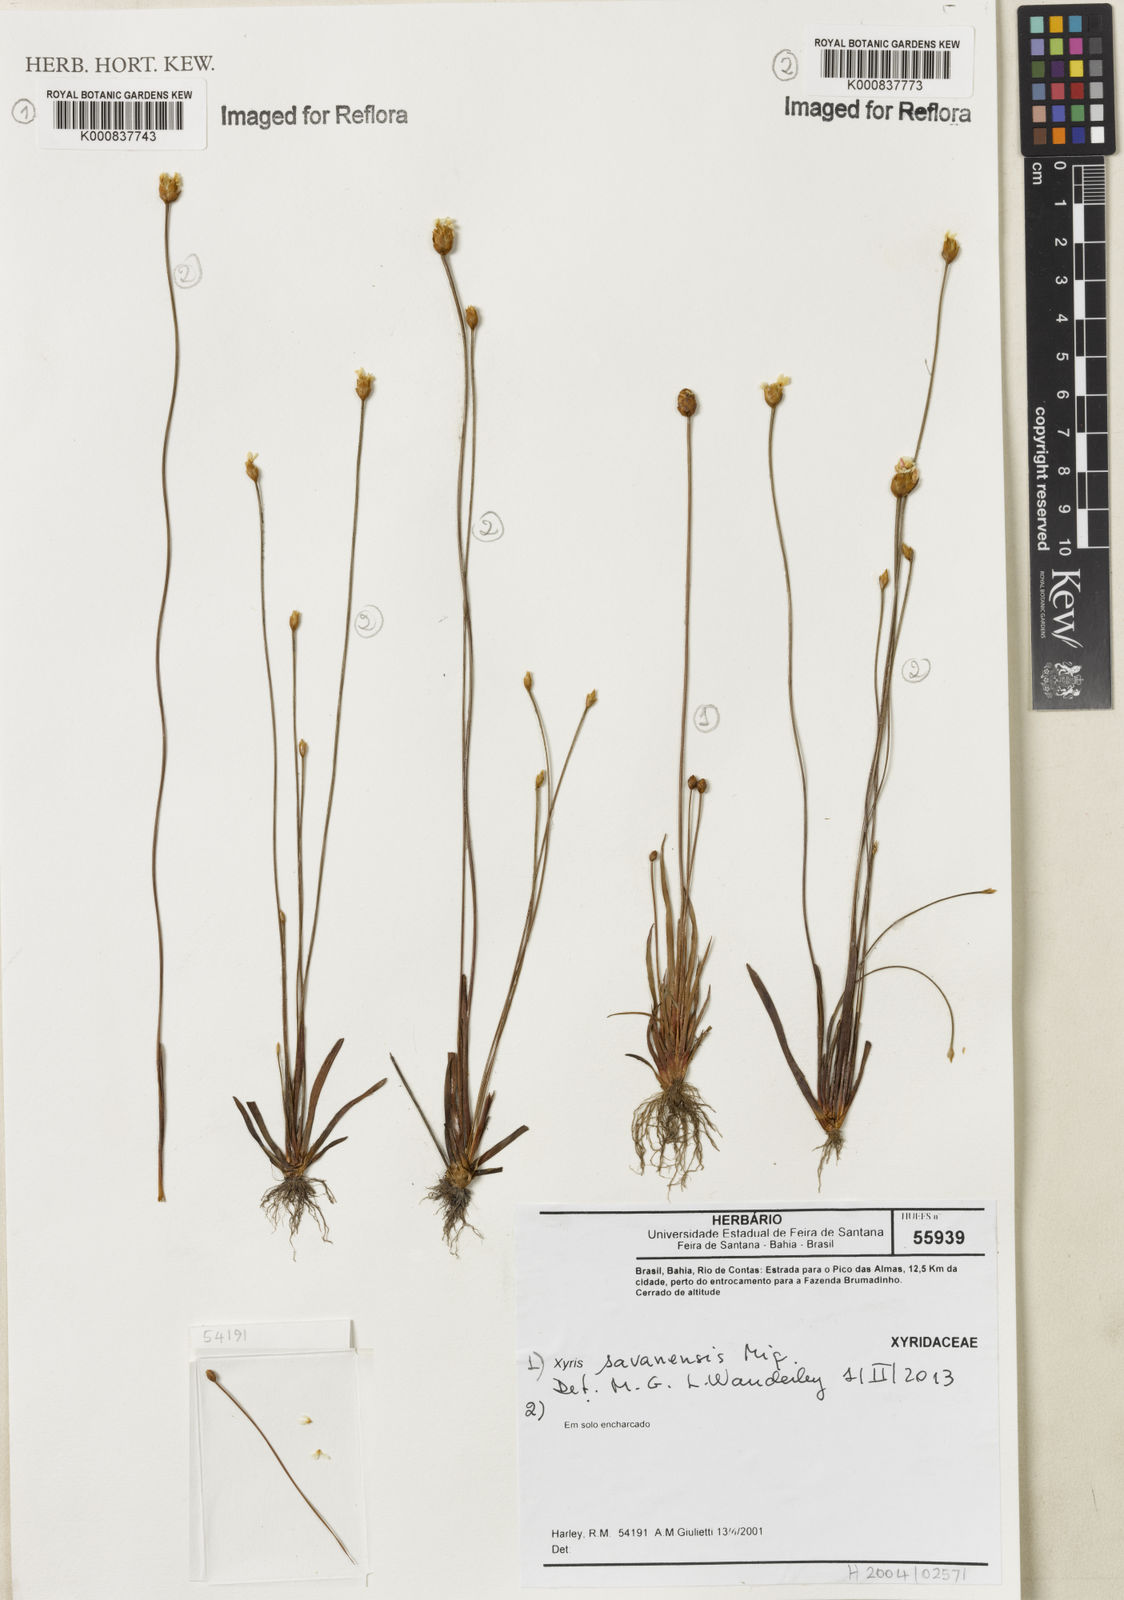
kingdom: Plantae
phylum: Tracheophyta
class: Liliopsida
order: Poales
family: Xyridaceae
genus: Xyris
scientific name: Xyris
